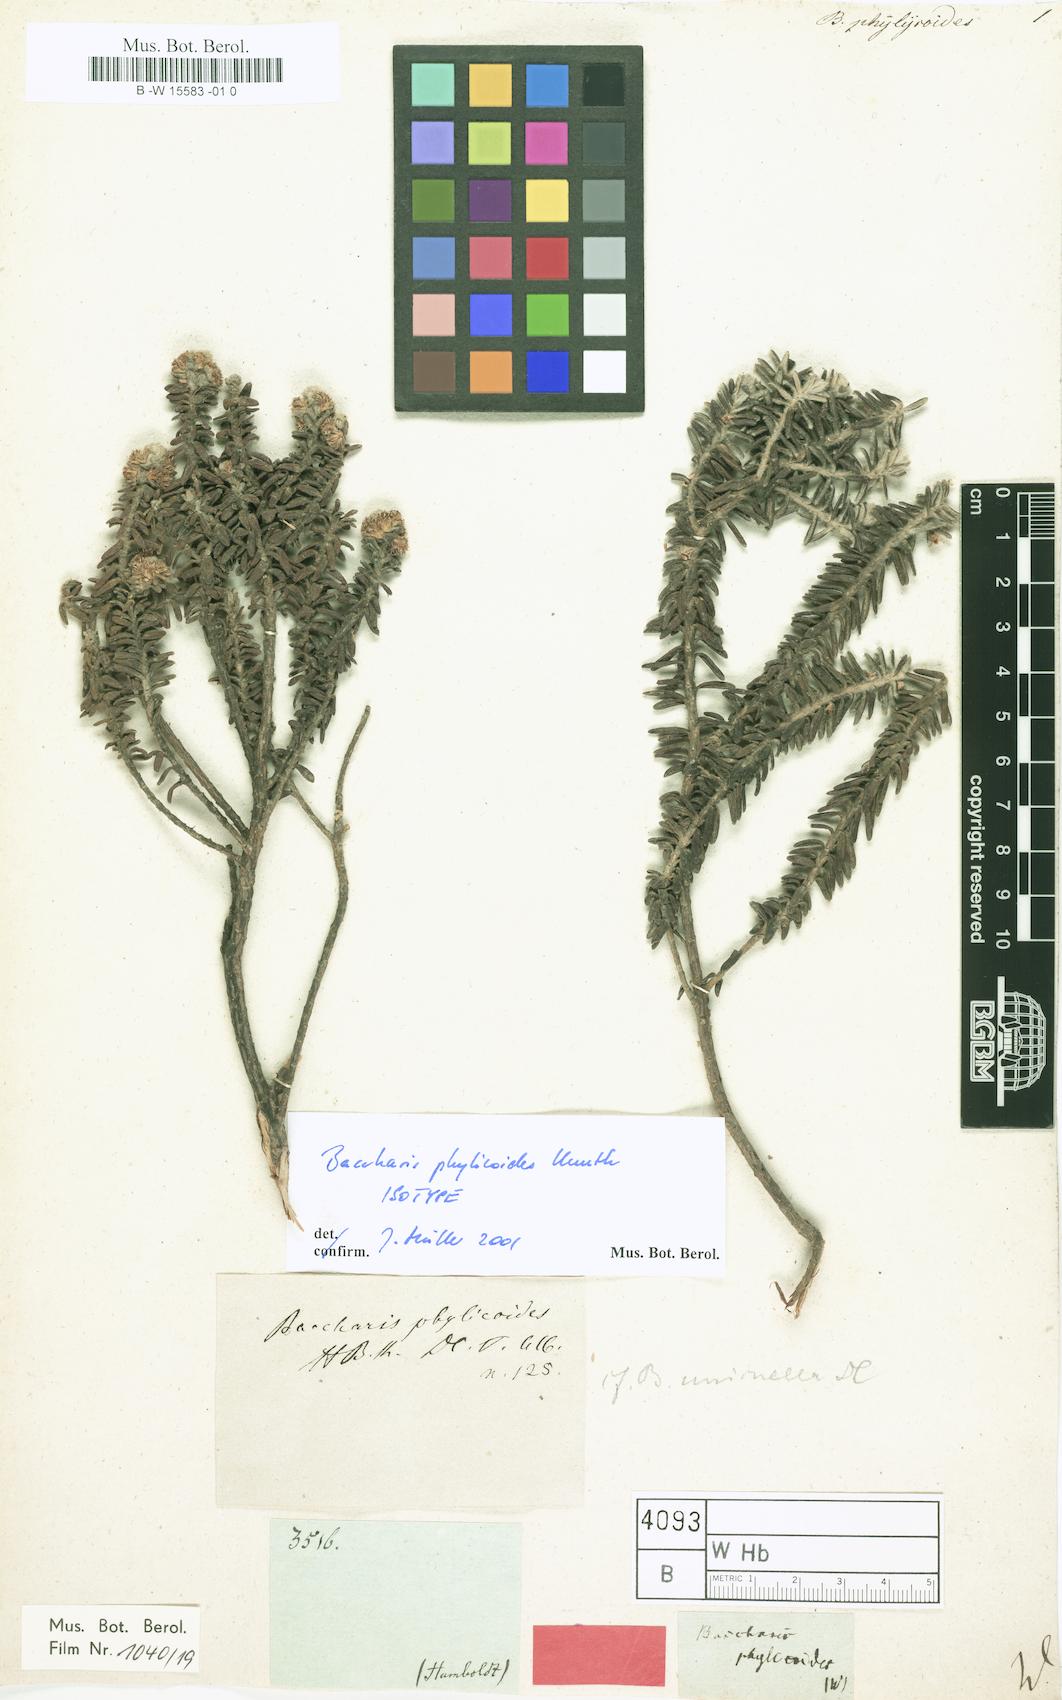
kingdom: Plantae
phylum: Tracheophyta
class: Magnoliopsida
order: Asterales
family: Asteraceae
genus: Baccharis
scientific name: Baccharis phylicoides
